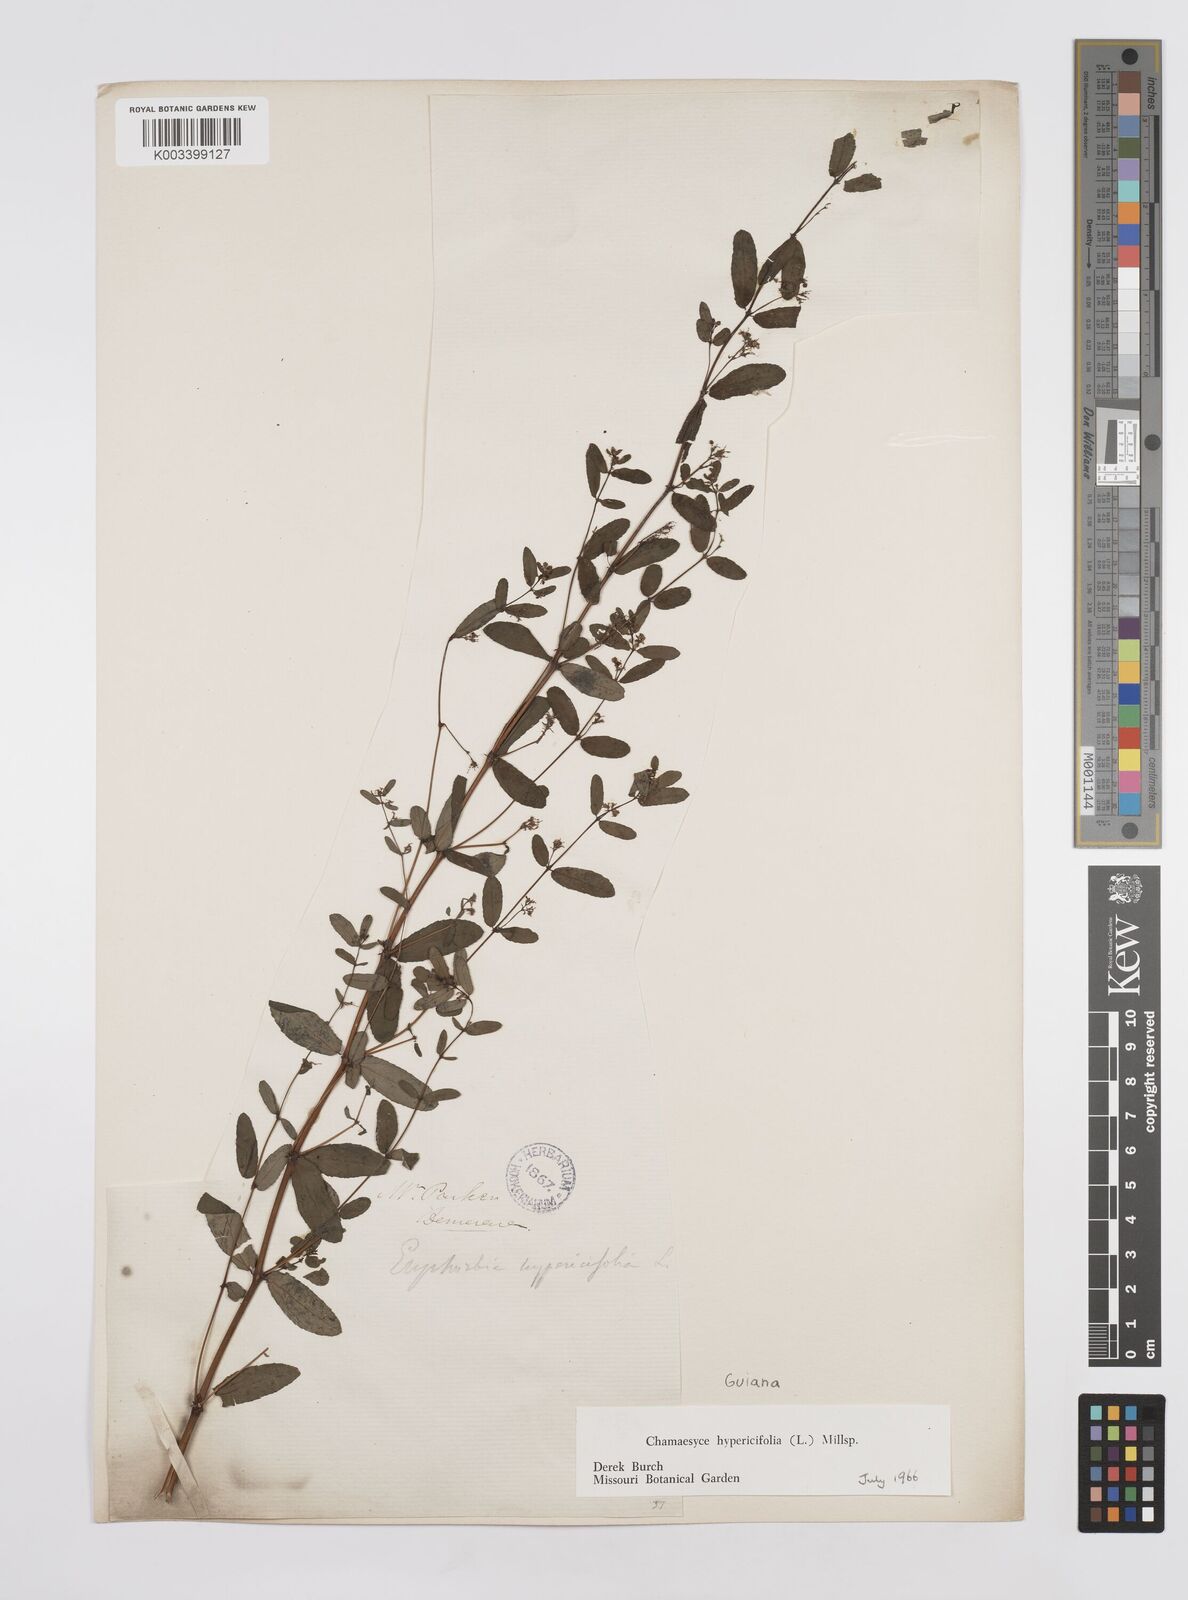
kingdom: Plantae
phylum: Tracheophyta
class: Magnoliopsida
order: Malpighiales
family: Euphorbiaceae
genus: Euphorbia
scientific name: Euphorbia hypericifolia
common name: Graceful sandmat
